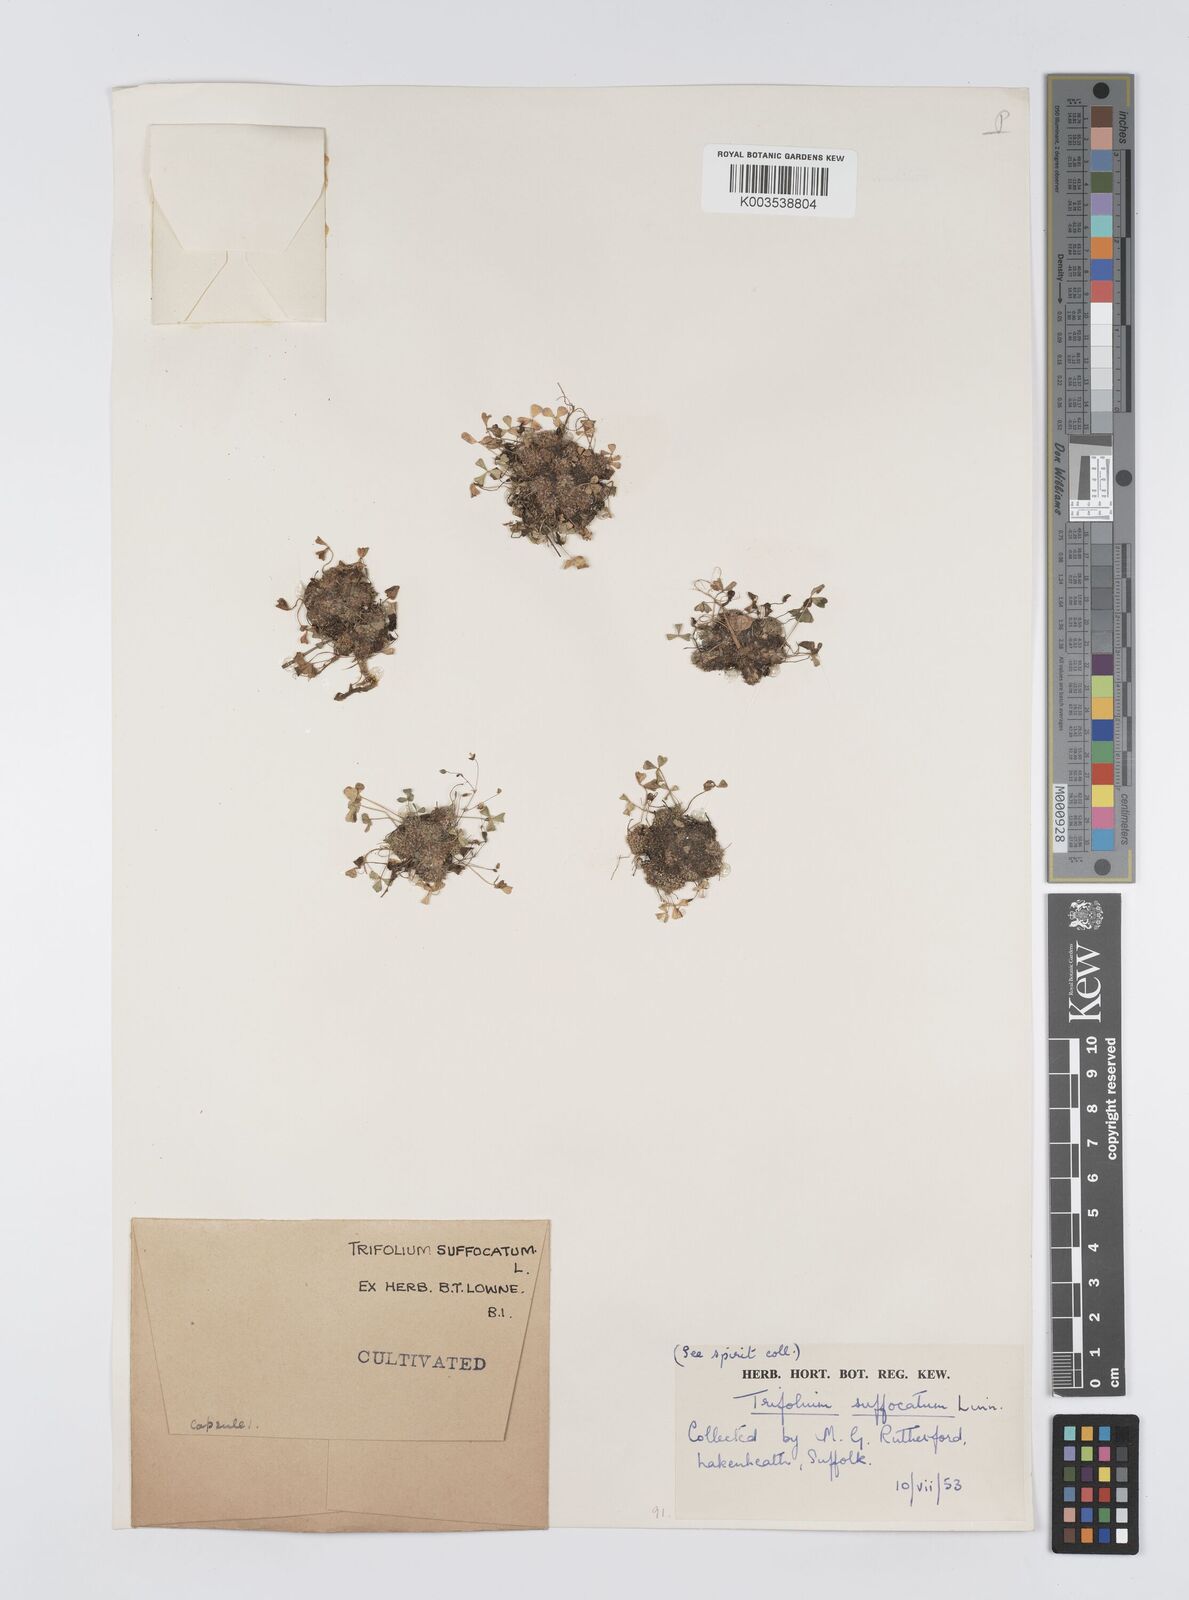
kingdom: Plantae
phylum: Tracheophyta
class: Magnoliopsida
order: Fabales
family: Fabaceae
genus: Trifolium
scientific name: Trifolium suffocatum
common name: Suffocated clover
